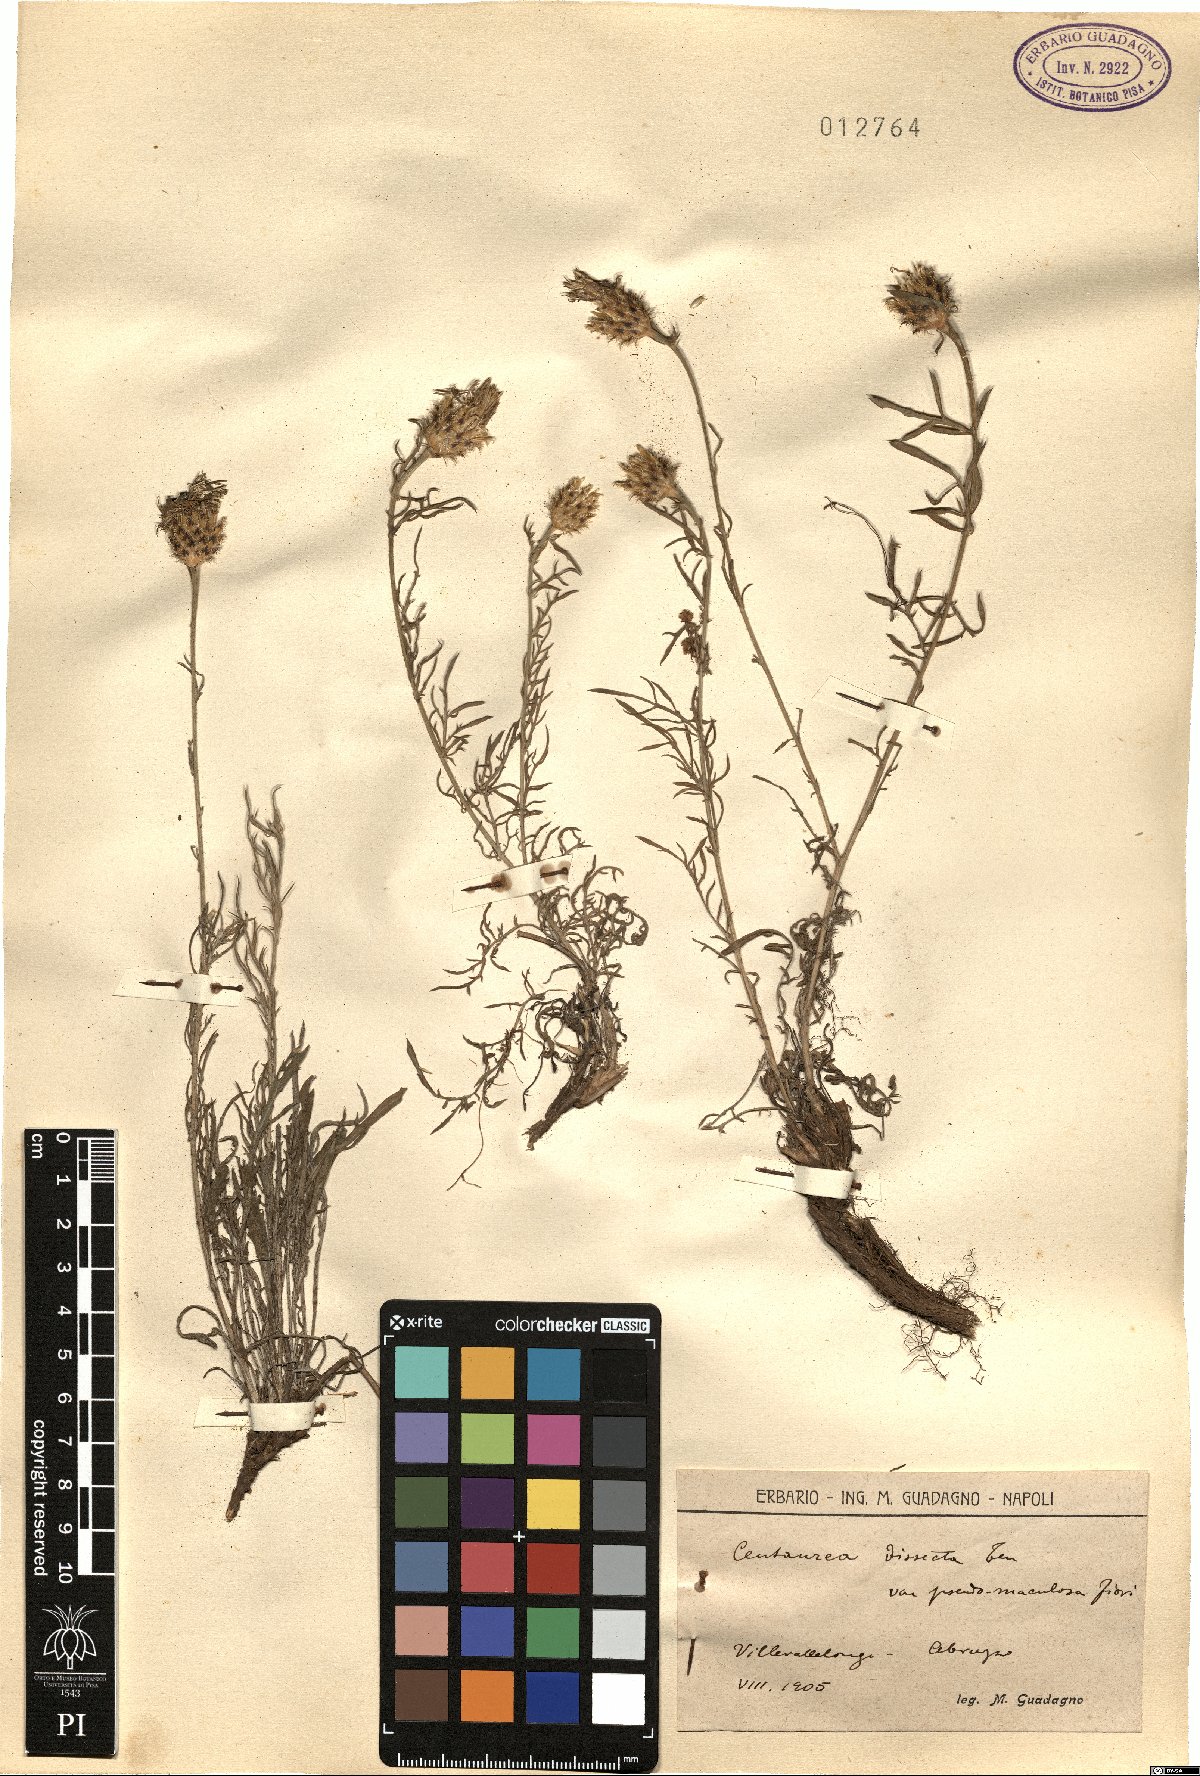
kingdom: Plantae
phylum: Tracheophyta
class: Magnoliopsida
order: Asterales
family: Asteraceae
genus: Centaurea
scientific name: Centaurea tenorei
